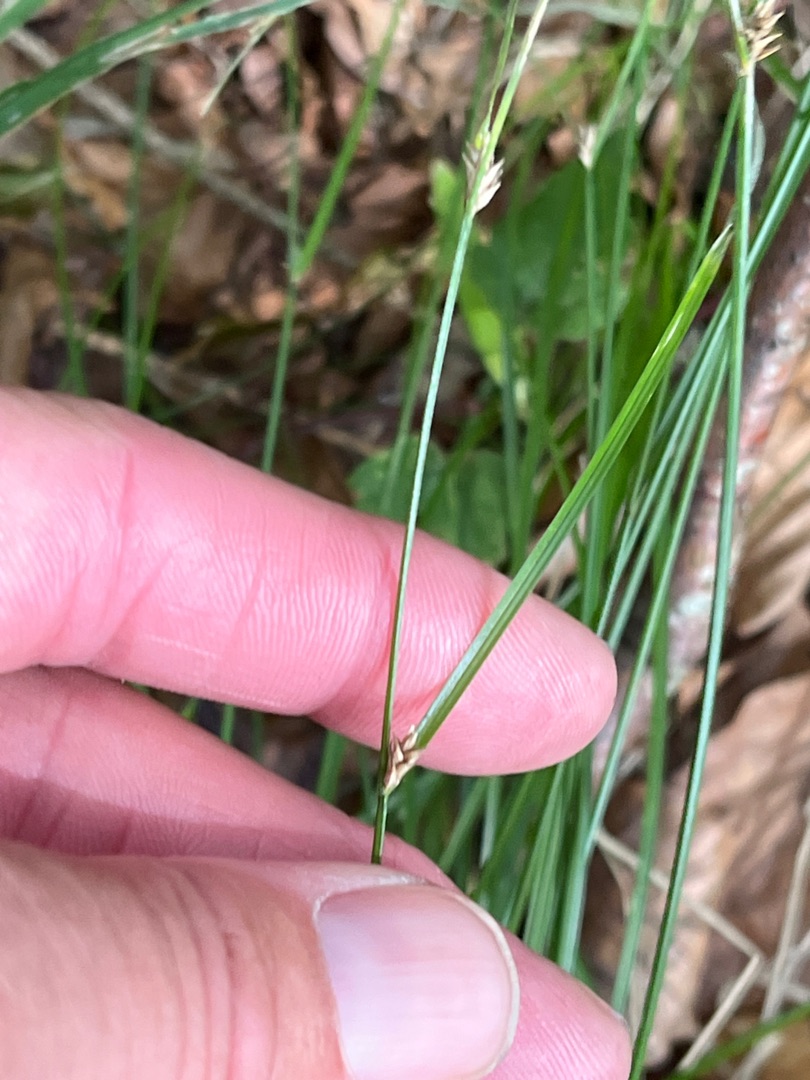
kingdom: Plantae
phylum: Tracheophyta
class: Liliopsida
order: Poales
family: Cyperaceae
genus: Carex
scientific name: Carex remota
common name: Akselblomstret star
